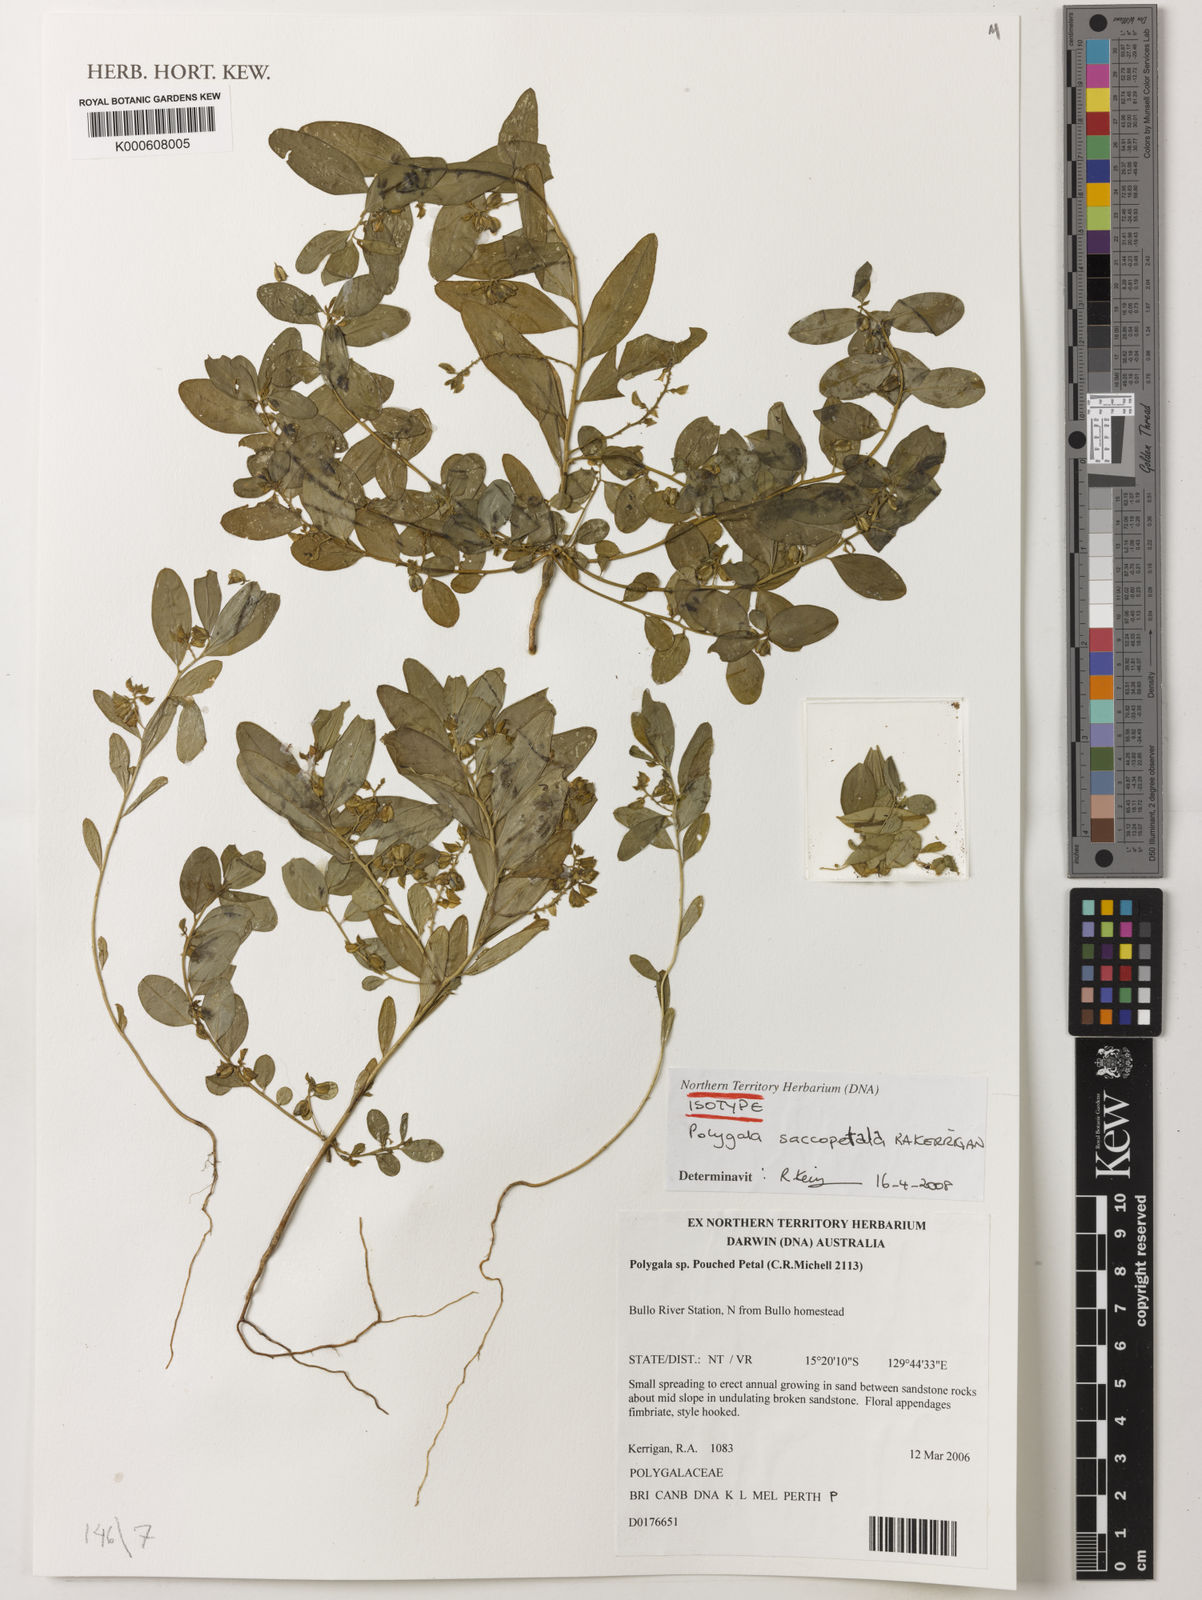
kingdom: Plantae
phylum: Tracheophyta
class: Magnoliopsida
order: Fabales
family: Polygalaceae
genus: Polygala
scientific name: Polygala saccopetala
